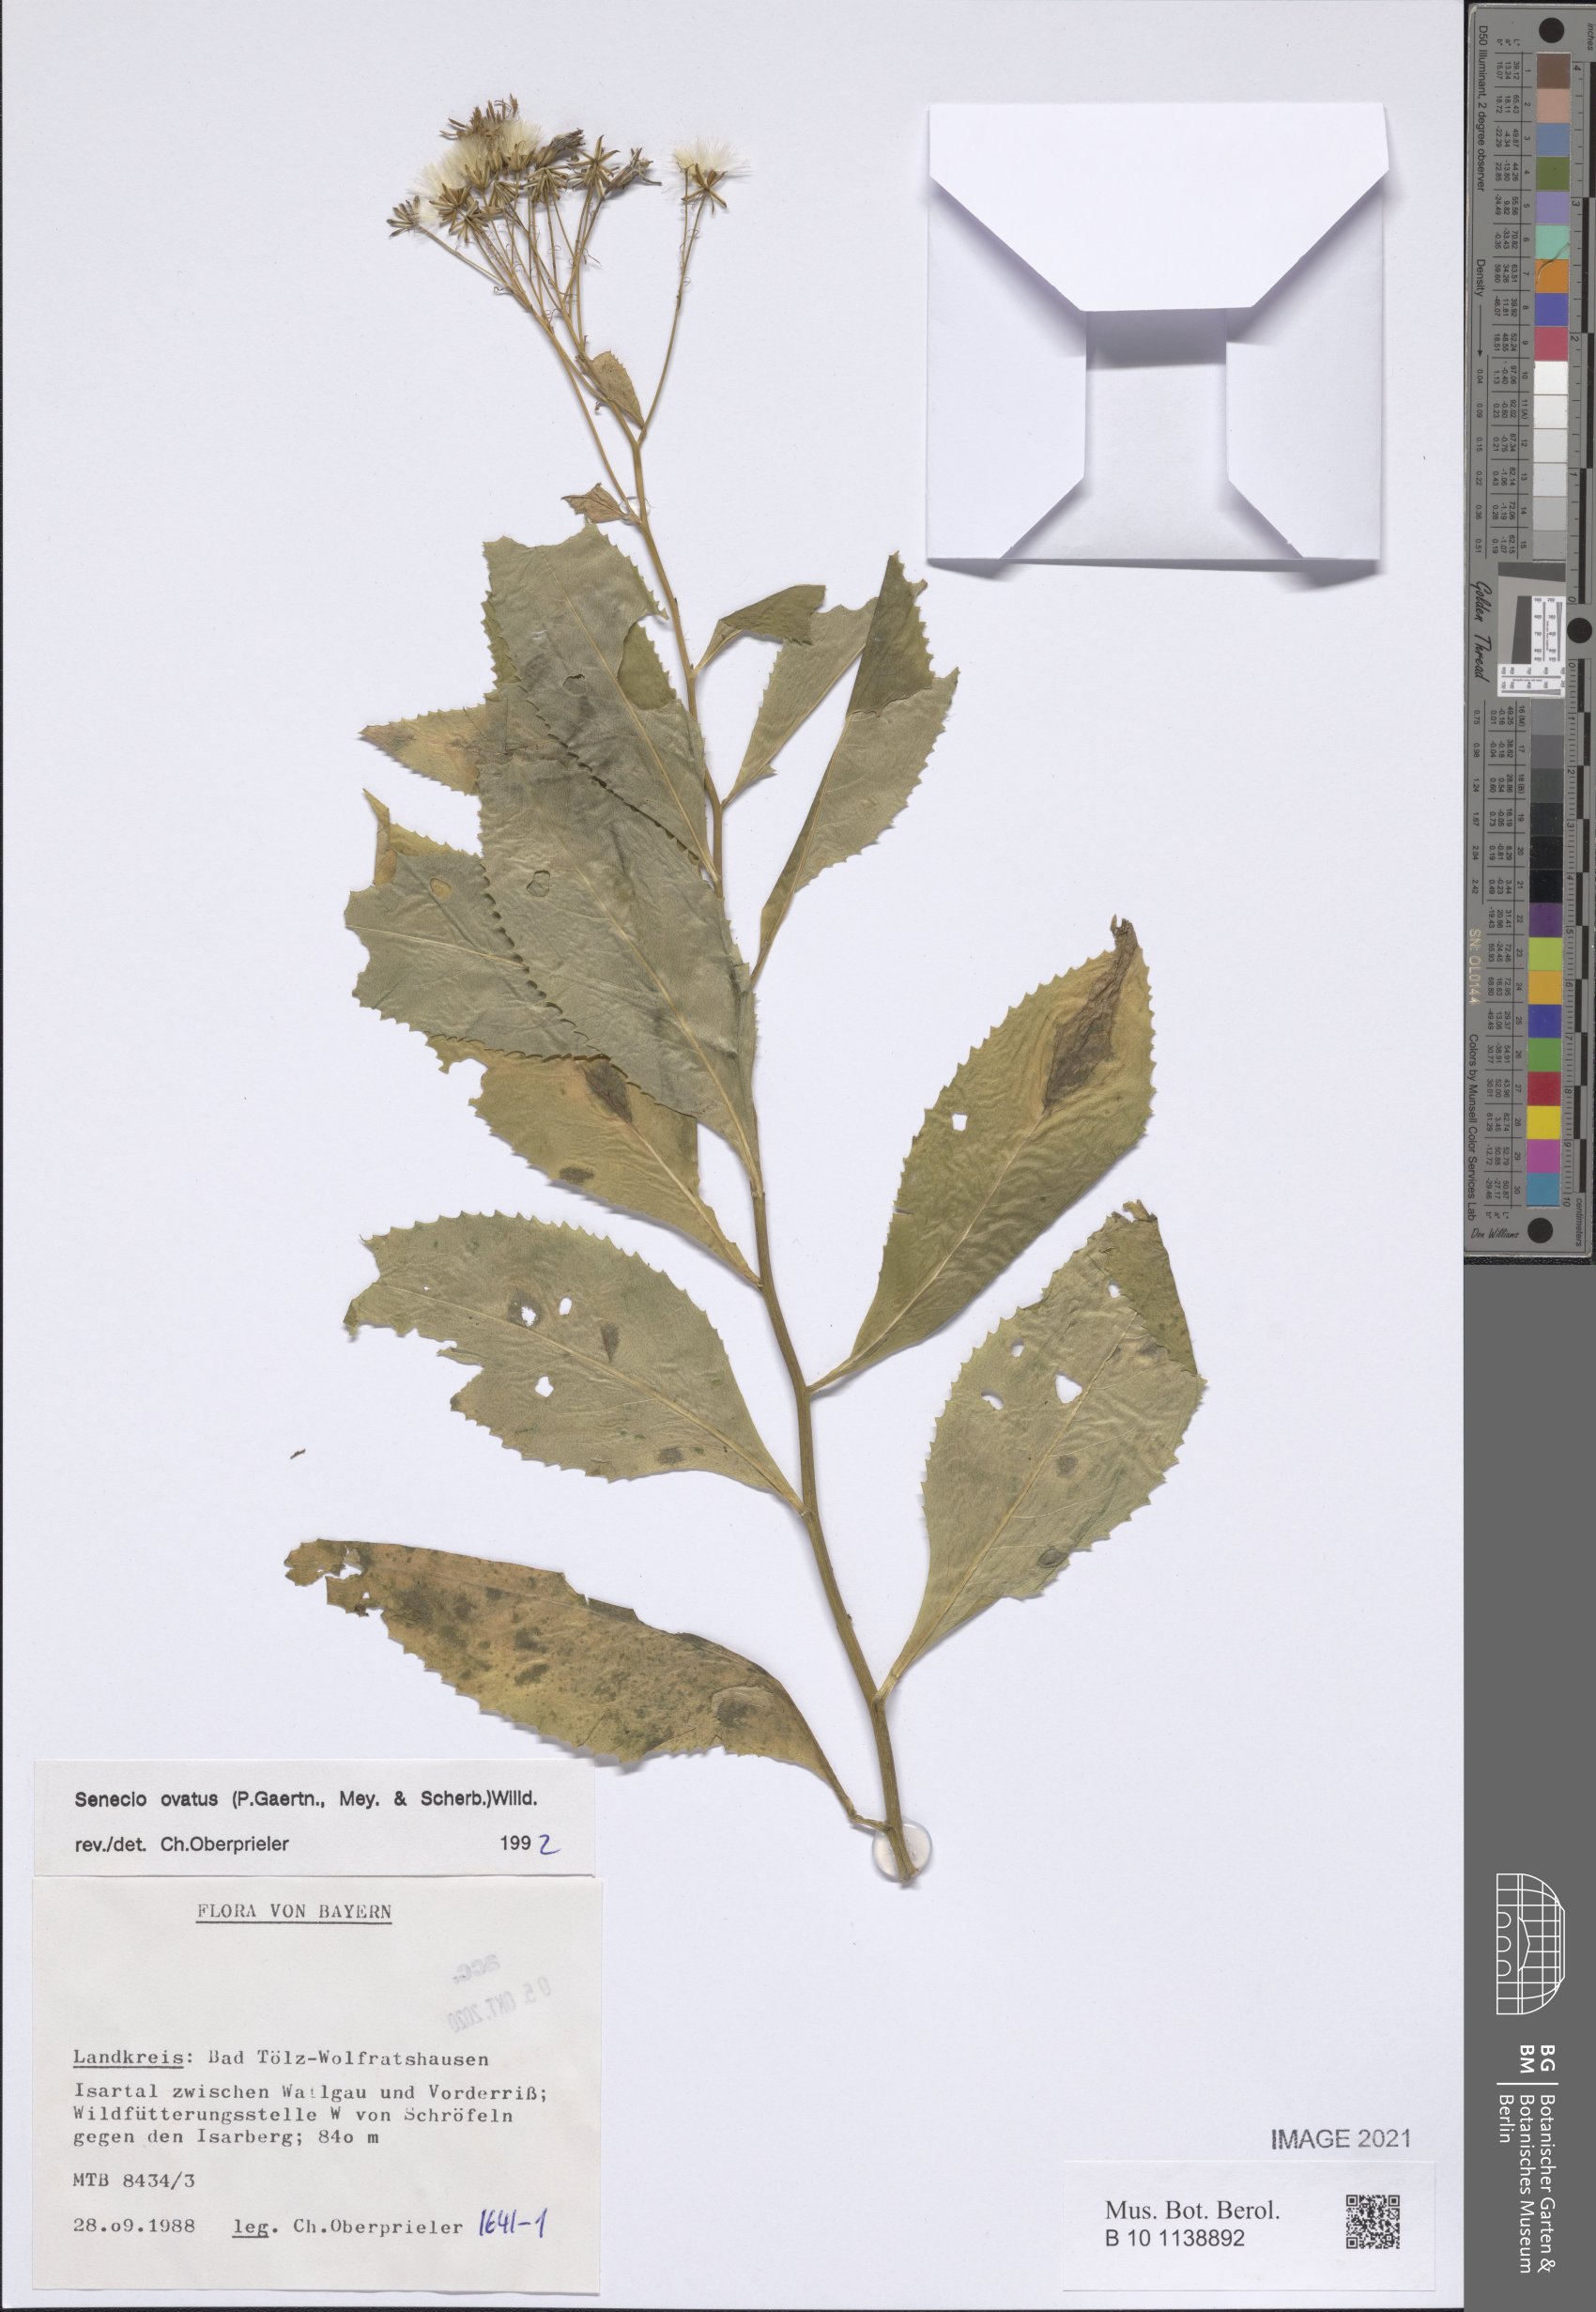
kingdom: Plantae
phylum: Tracheophyta
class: Magnoliopsida
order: Asterales
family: Asteraceae
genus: Senecio
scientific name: Senecio ovatus
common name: Wood ragwort
